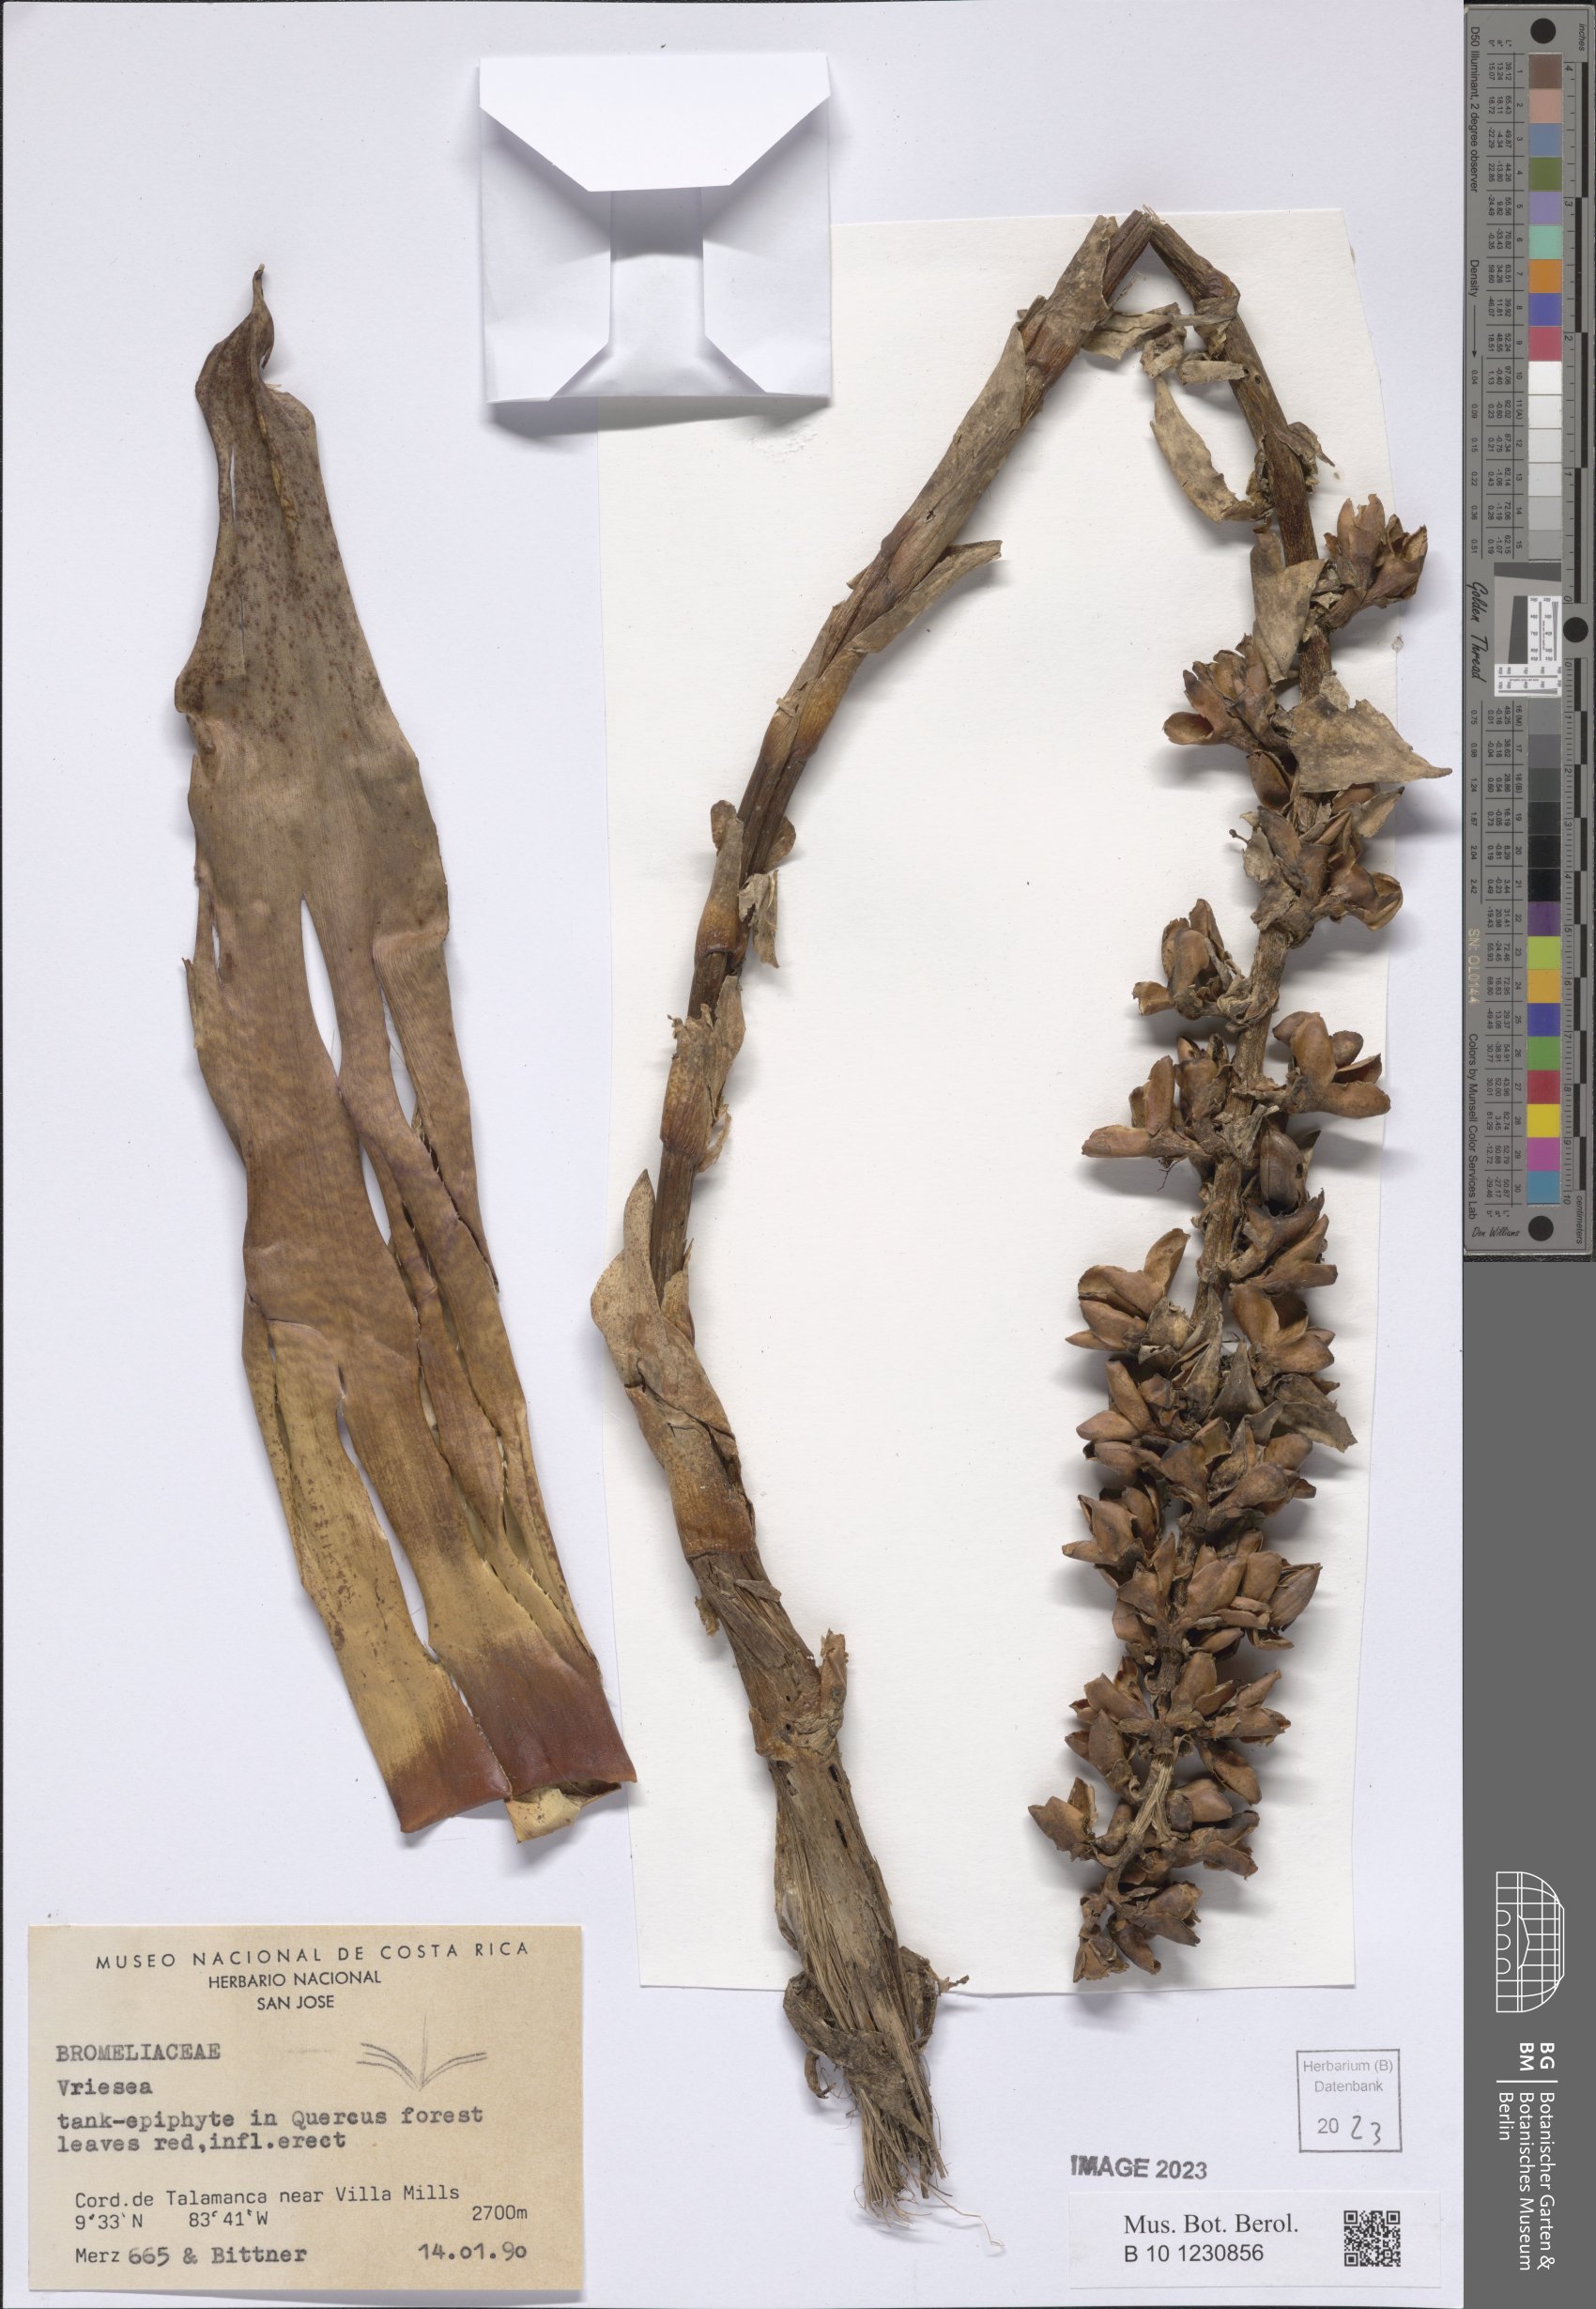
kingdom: Plantae
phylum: Tracheophyta
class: Liliopsida
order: Poales
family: Bromeliaceae
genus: Vriesea
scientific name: Vriesea
